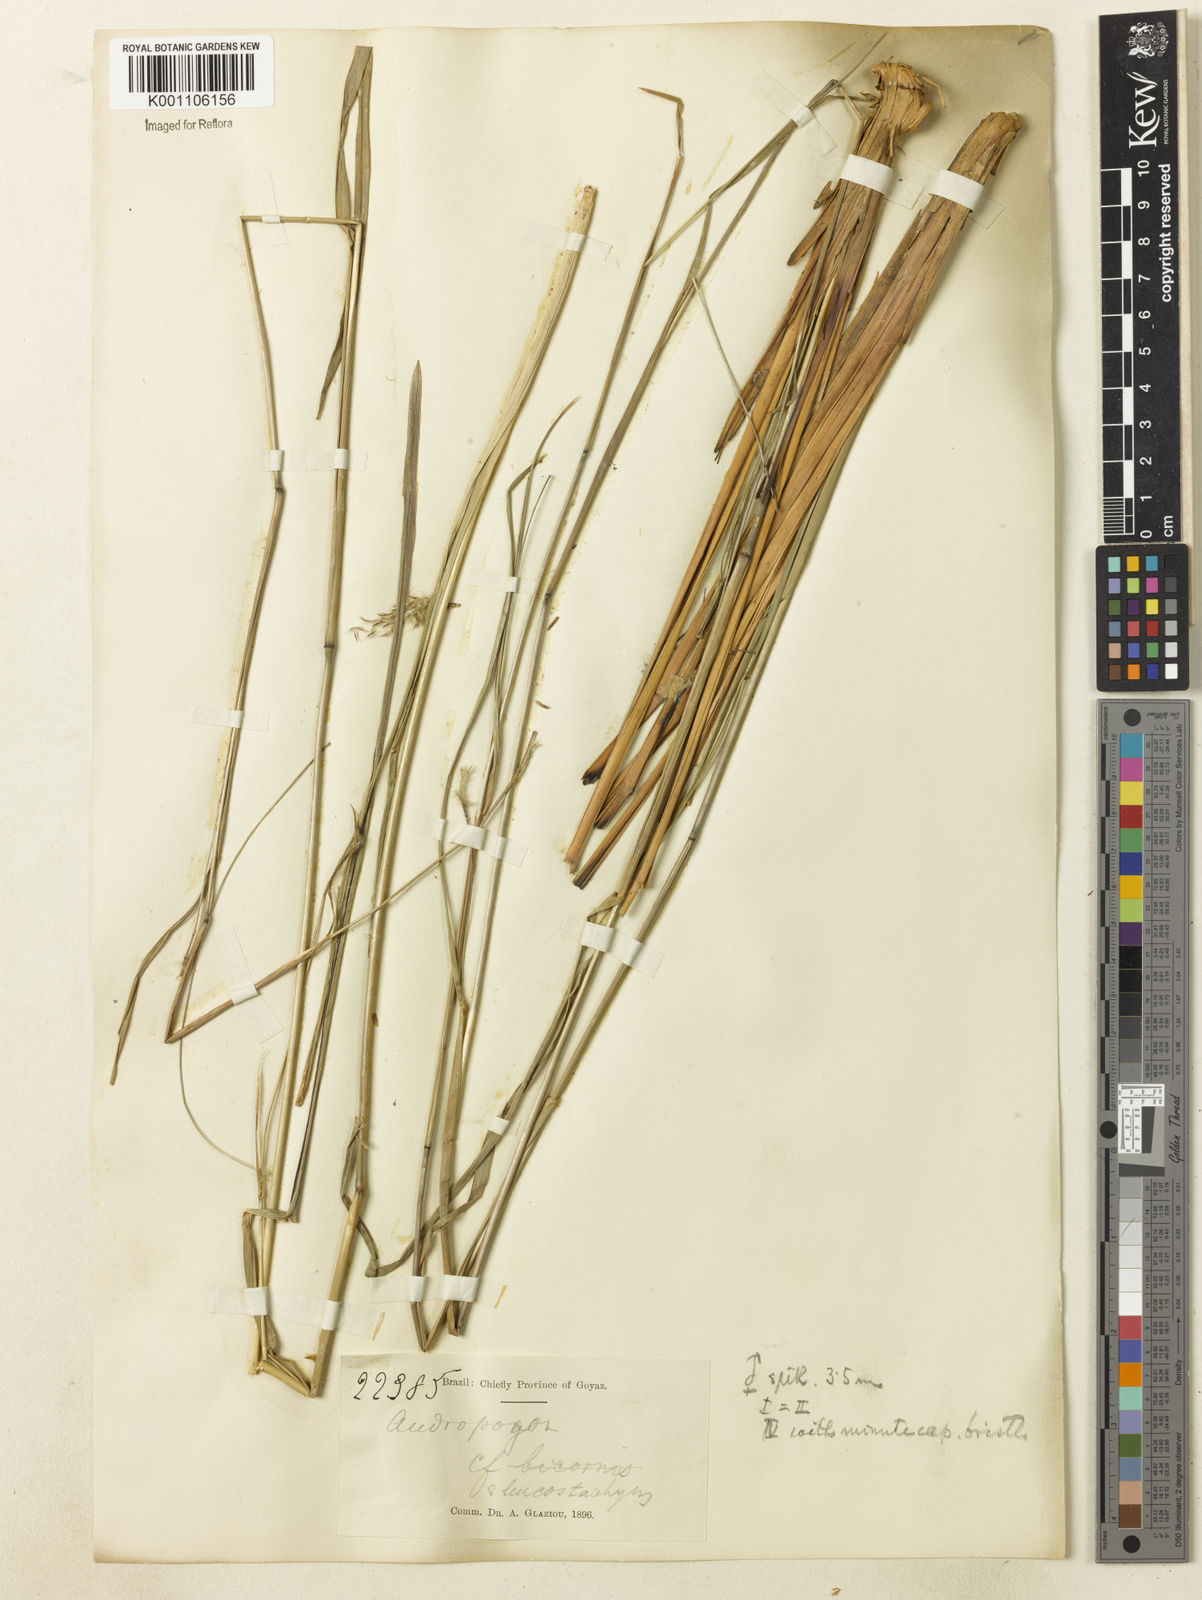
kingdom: Plantae
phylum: Tracheophyta
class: Liliopsida
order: Poales
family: Poaceae
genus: Andropogon
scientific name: Andropogon leucostachyus
